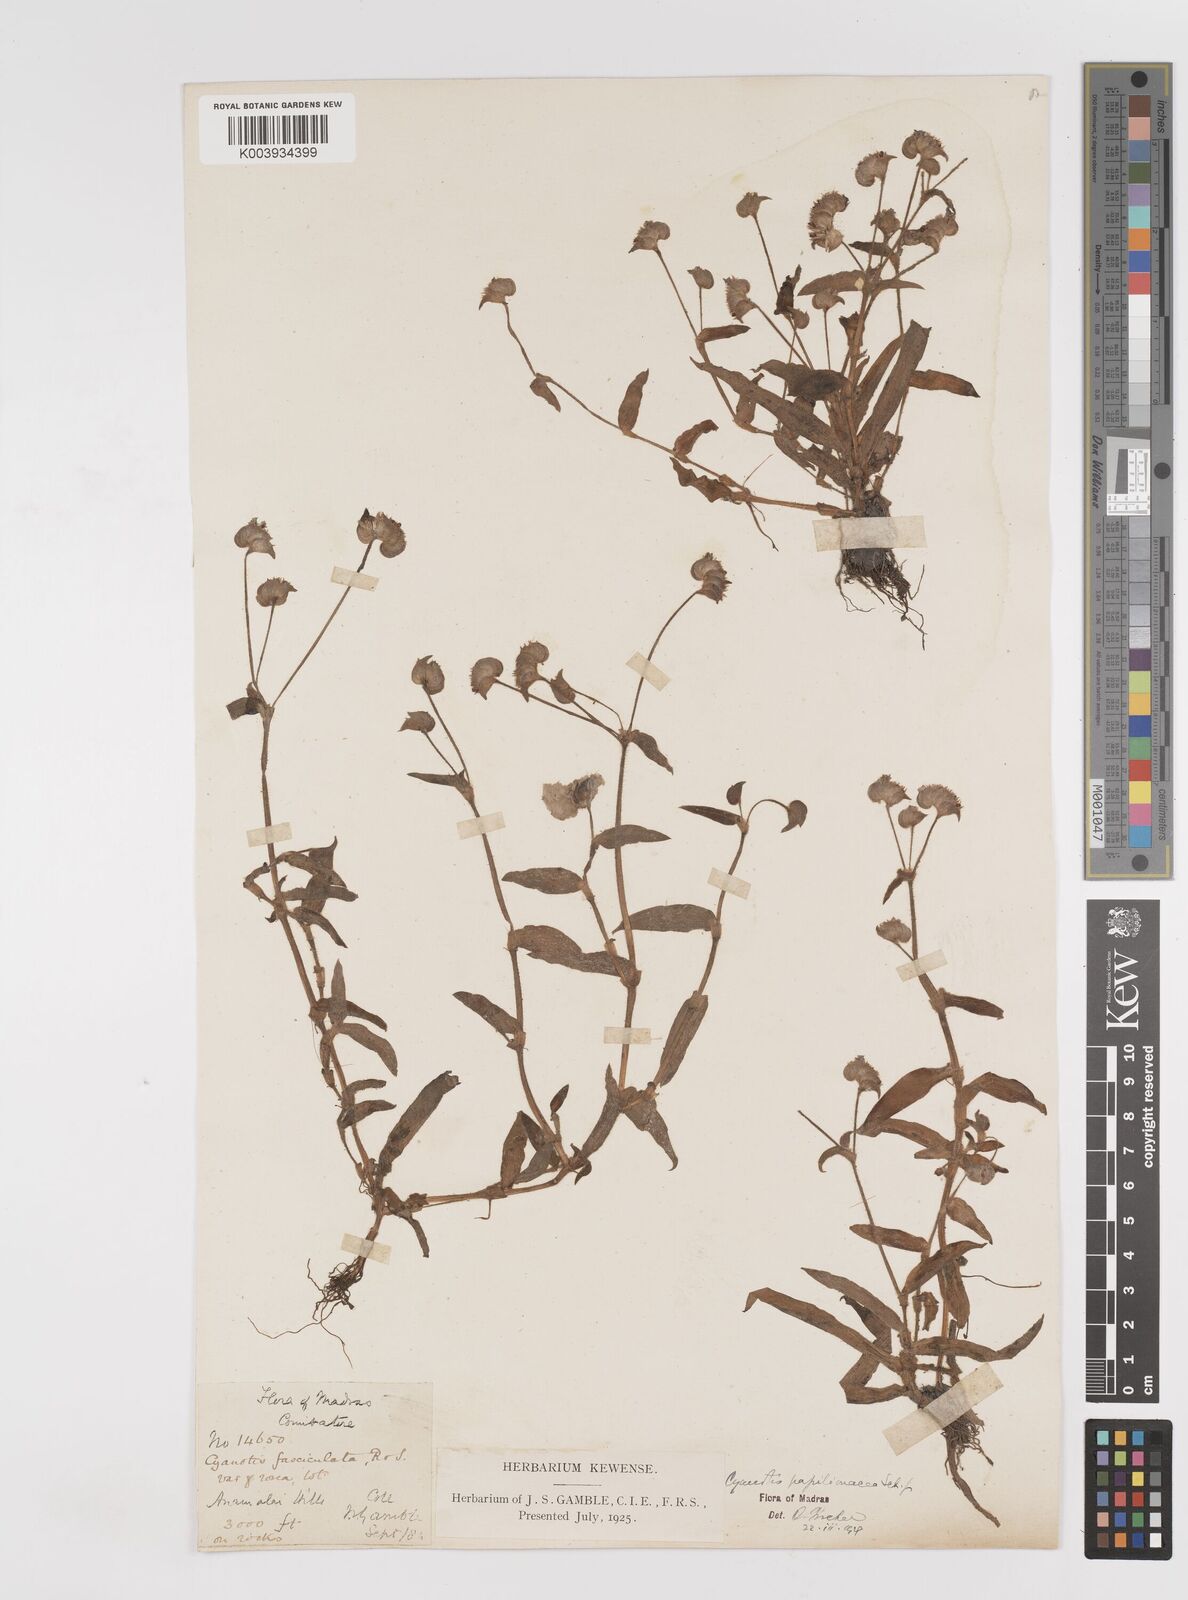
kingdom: Plantae
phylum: Tracheophyta
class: Liliopsida
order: Commelinales
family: Commelinaceae
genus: Cyanotis
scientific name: Cyanotis cristata
